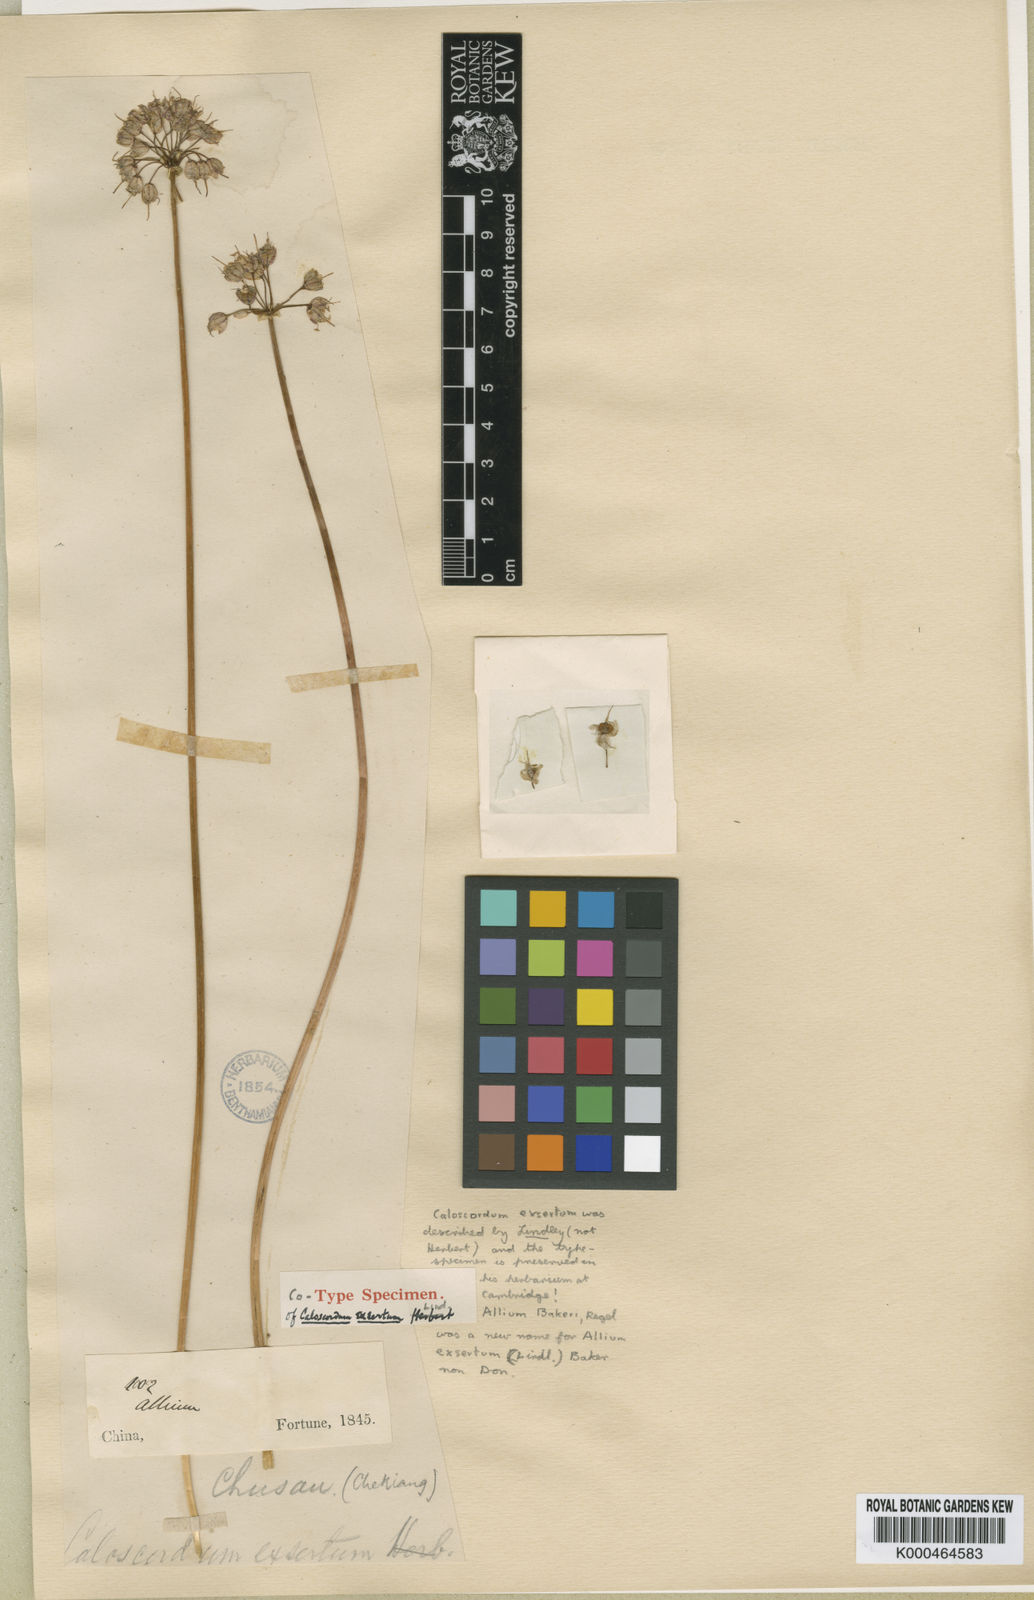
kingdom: Plantae
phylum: Tracheophyta
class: Liliopsida
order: Asparagales
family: Amaryllidaceae
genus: Allium
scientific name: Allium chinense
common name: Japanese scallion
